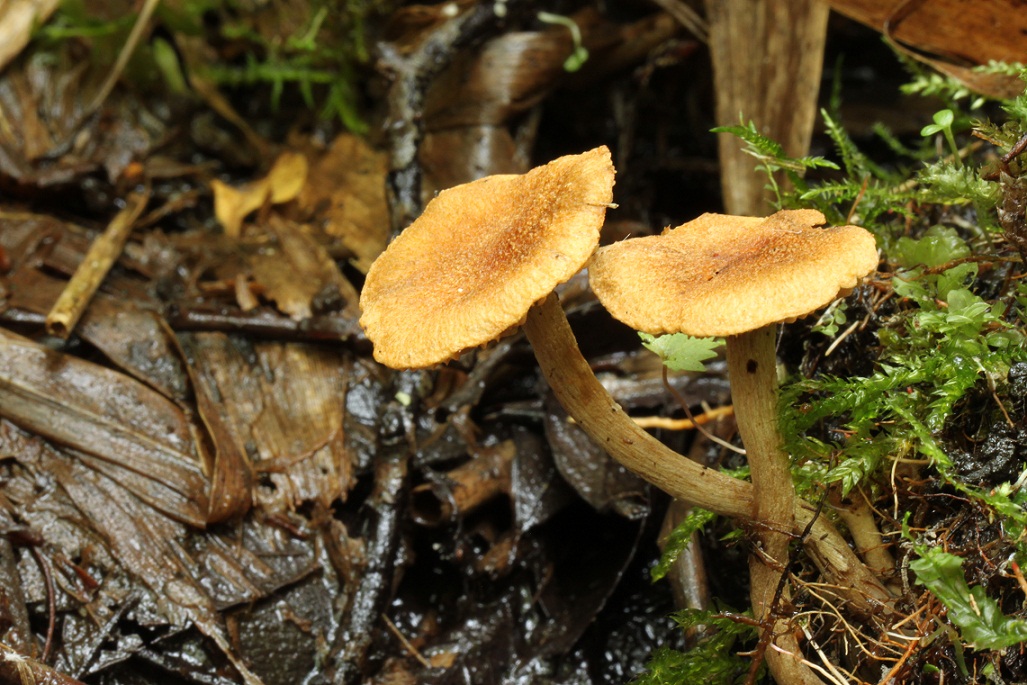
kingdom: Fungi
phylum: Basidiomycota
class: Agaricomycetes
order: Agaricales
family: Inocybaceae
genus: Inocybe
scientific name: Inocybe dulcamara
